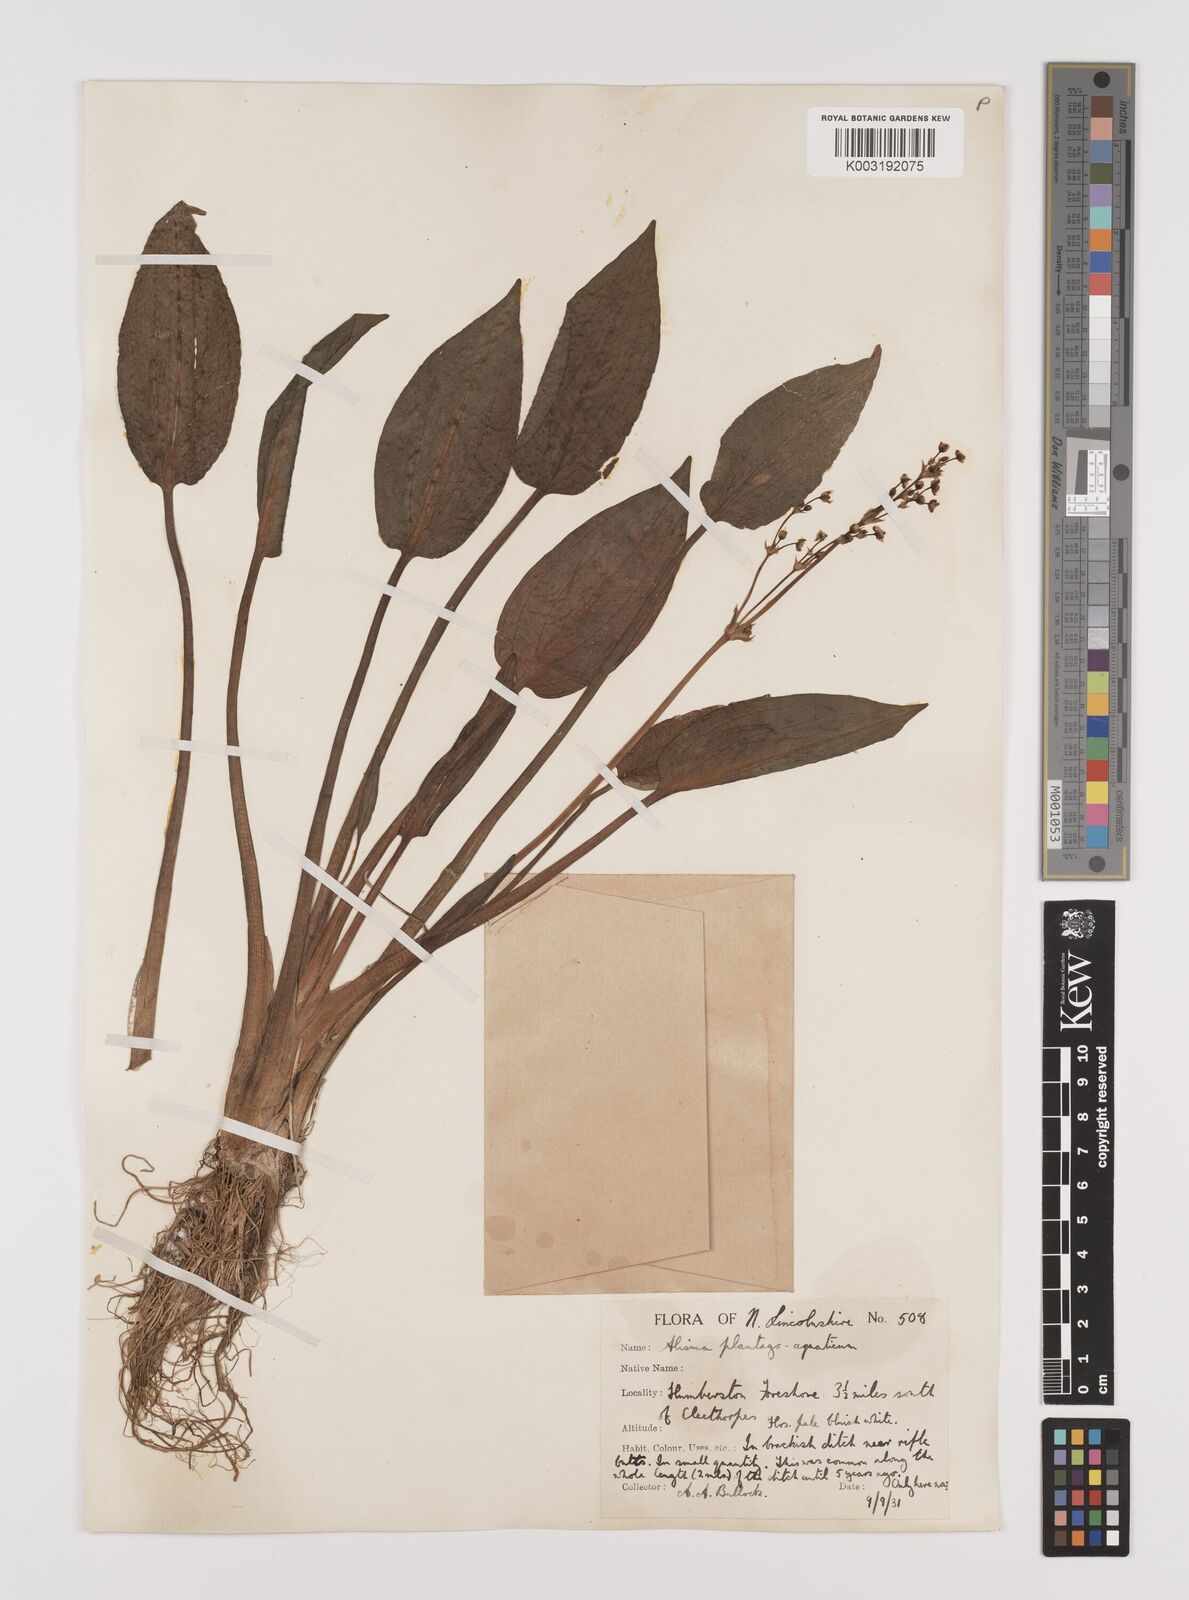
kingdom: Plantae
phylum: Tracheophyta
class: Liliopsida
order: Alismatales
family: Alismataceae
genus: Alisma
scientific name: Alisma plantago-aquatica
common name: Water-plantain
